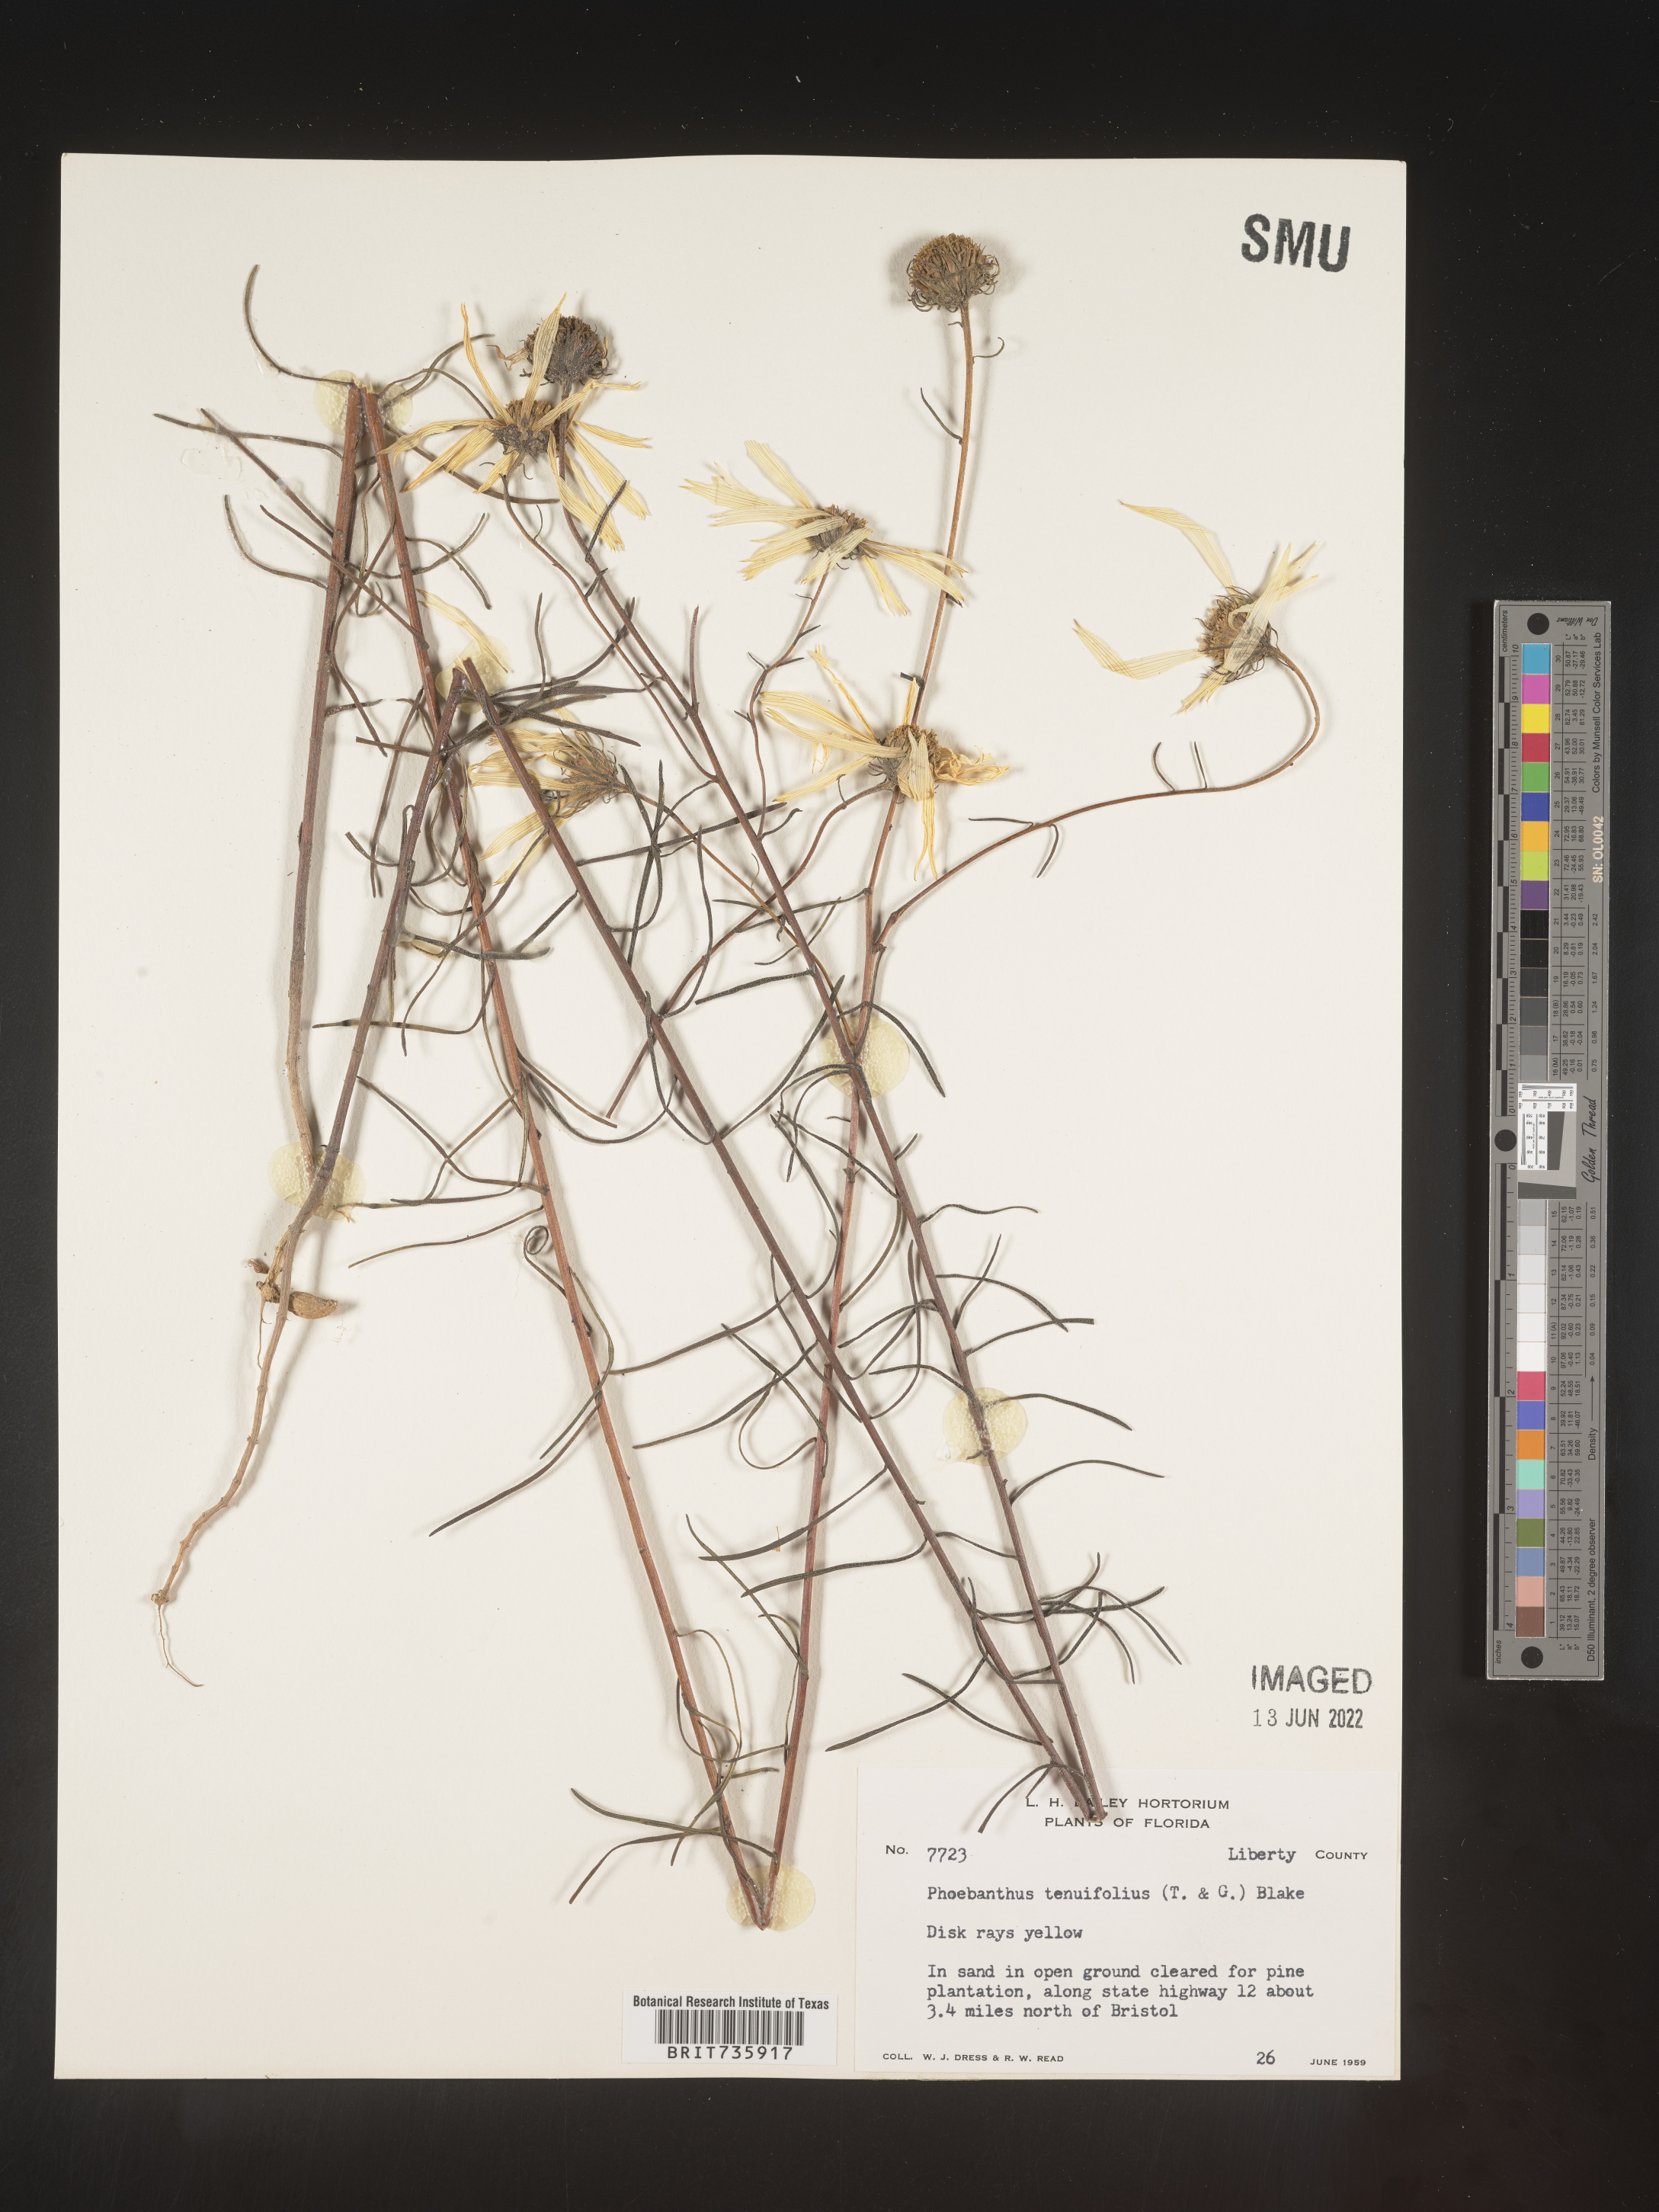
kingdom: Plantae
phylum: Tracheophyta
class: Magnoliopsida
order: Asterales
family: Asteraceae
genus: Phoebanthus
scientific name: Phoebanthus tenuifolia
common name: Pineland false sunflower
